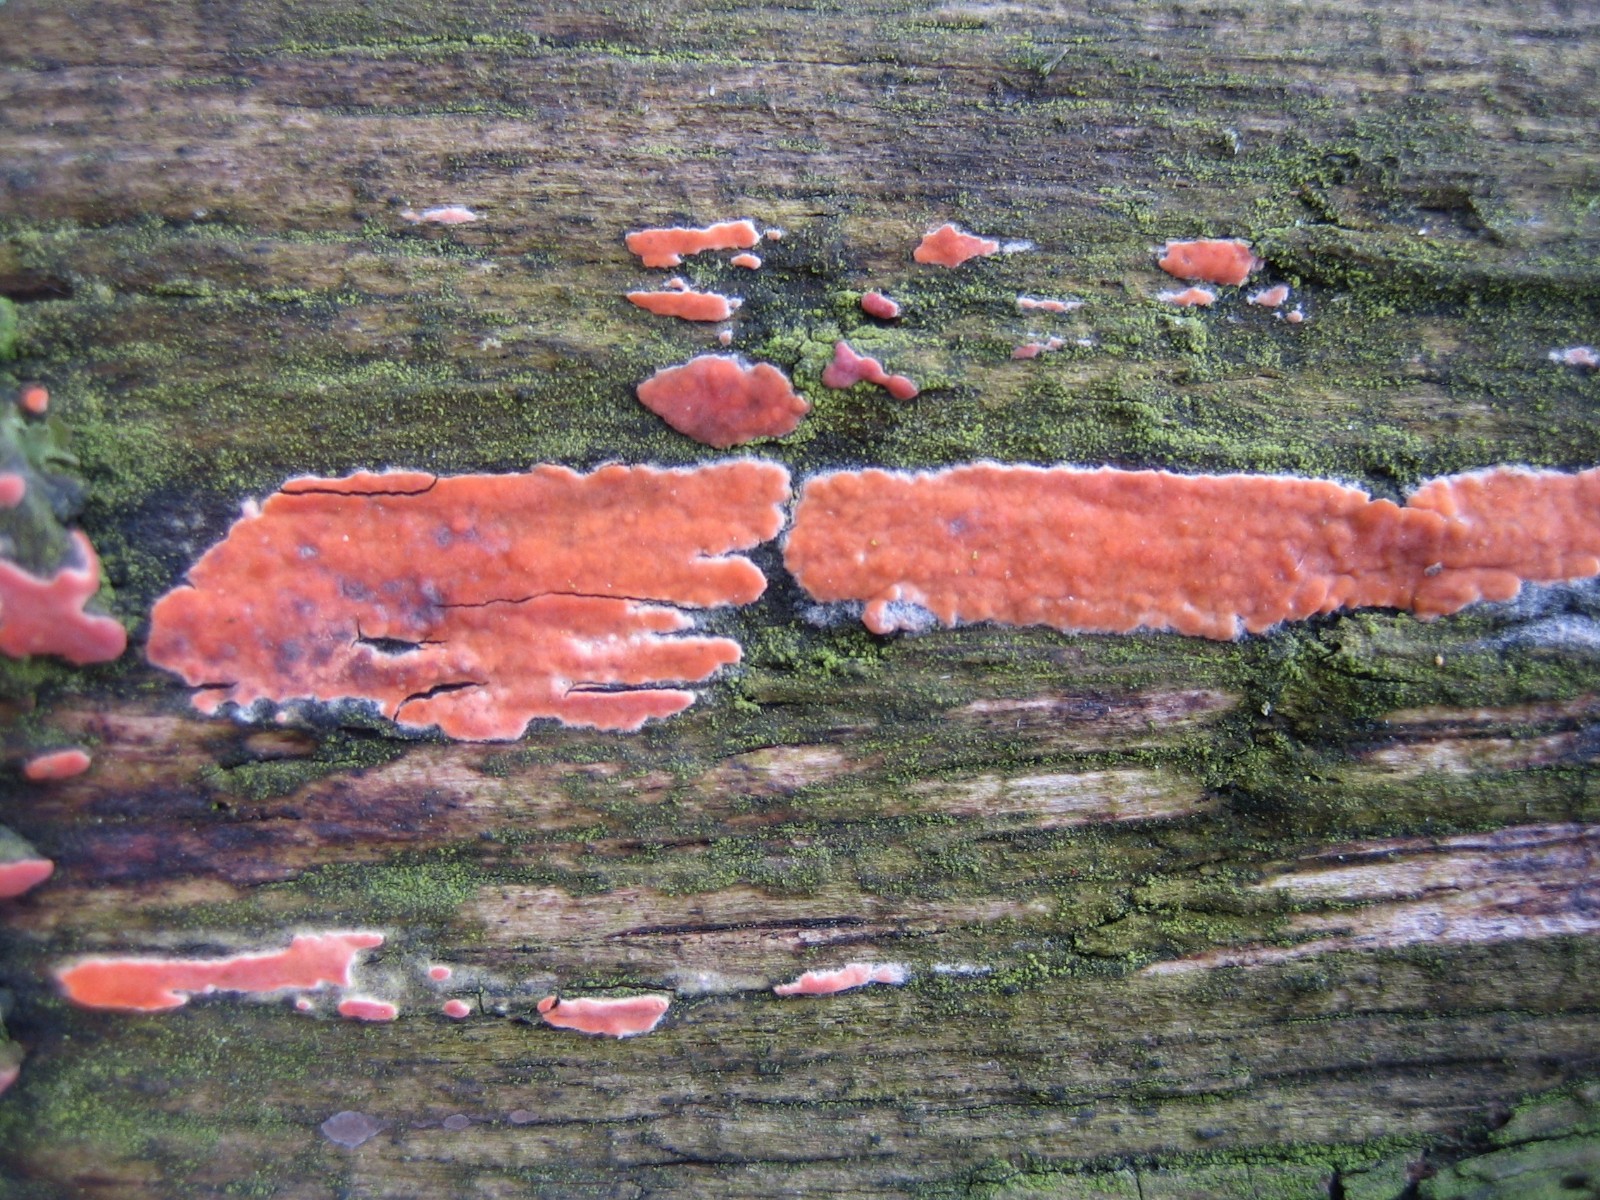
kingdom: Fungi
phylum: Basidiomycota
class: Agaricomycetes
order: Russulales
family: Peniophoraceae
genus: Peniophora
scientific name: Peniophora incarnata
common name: laksefarvet voksskind
